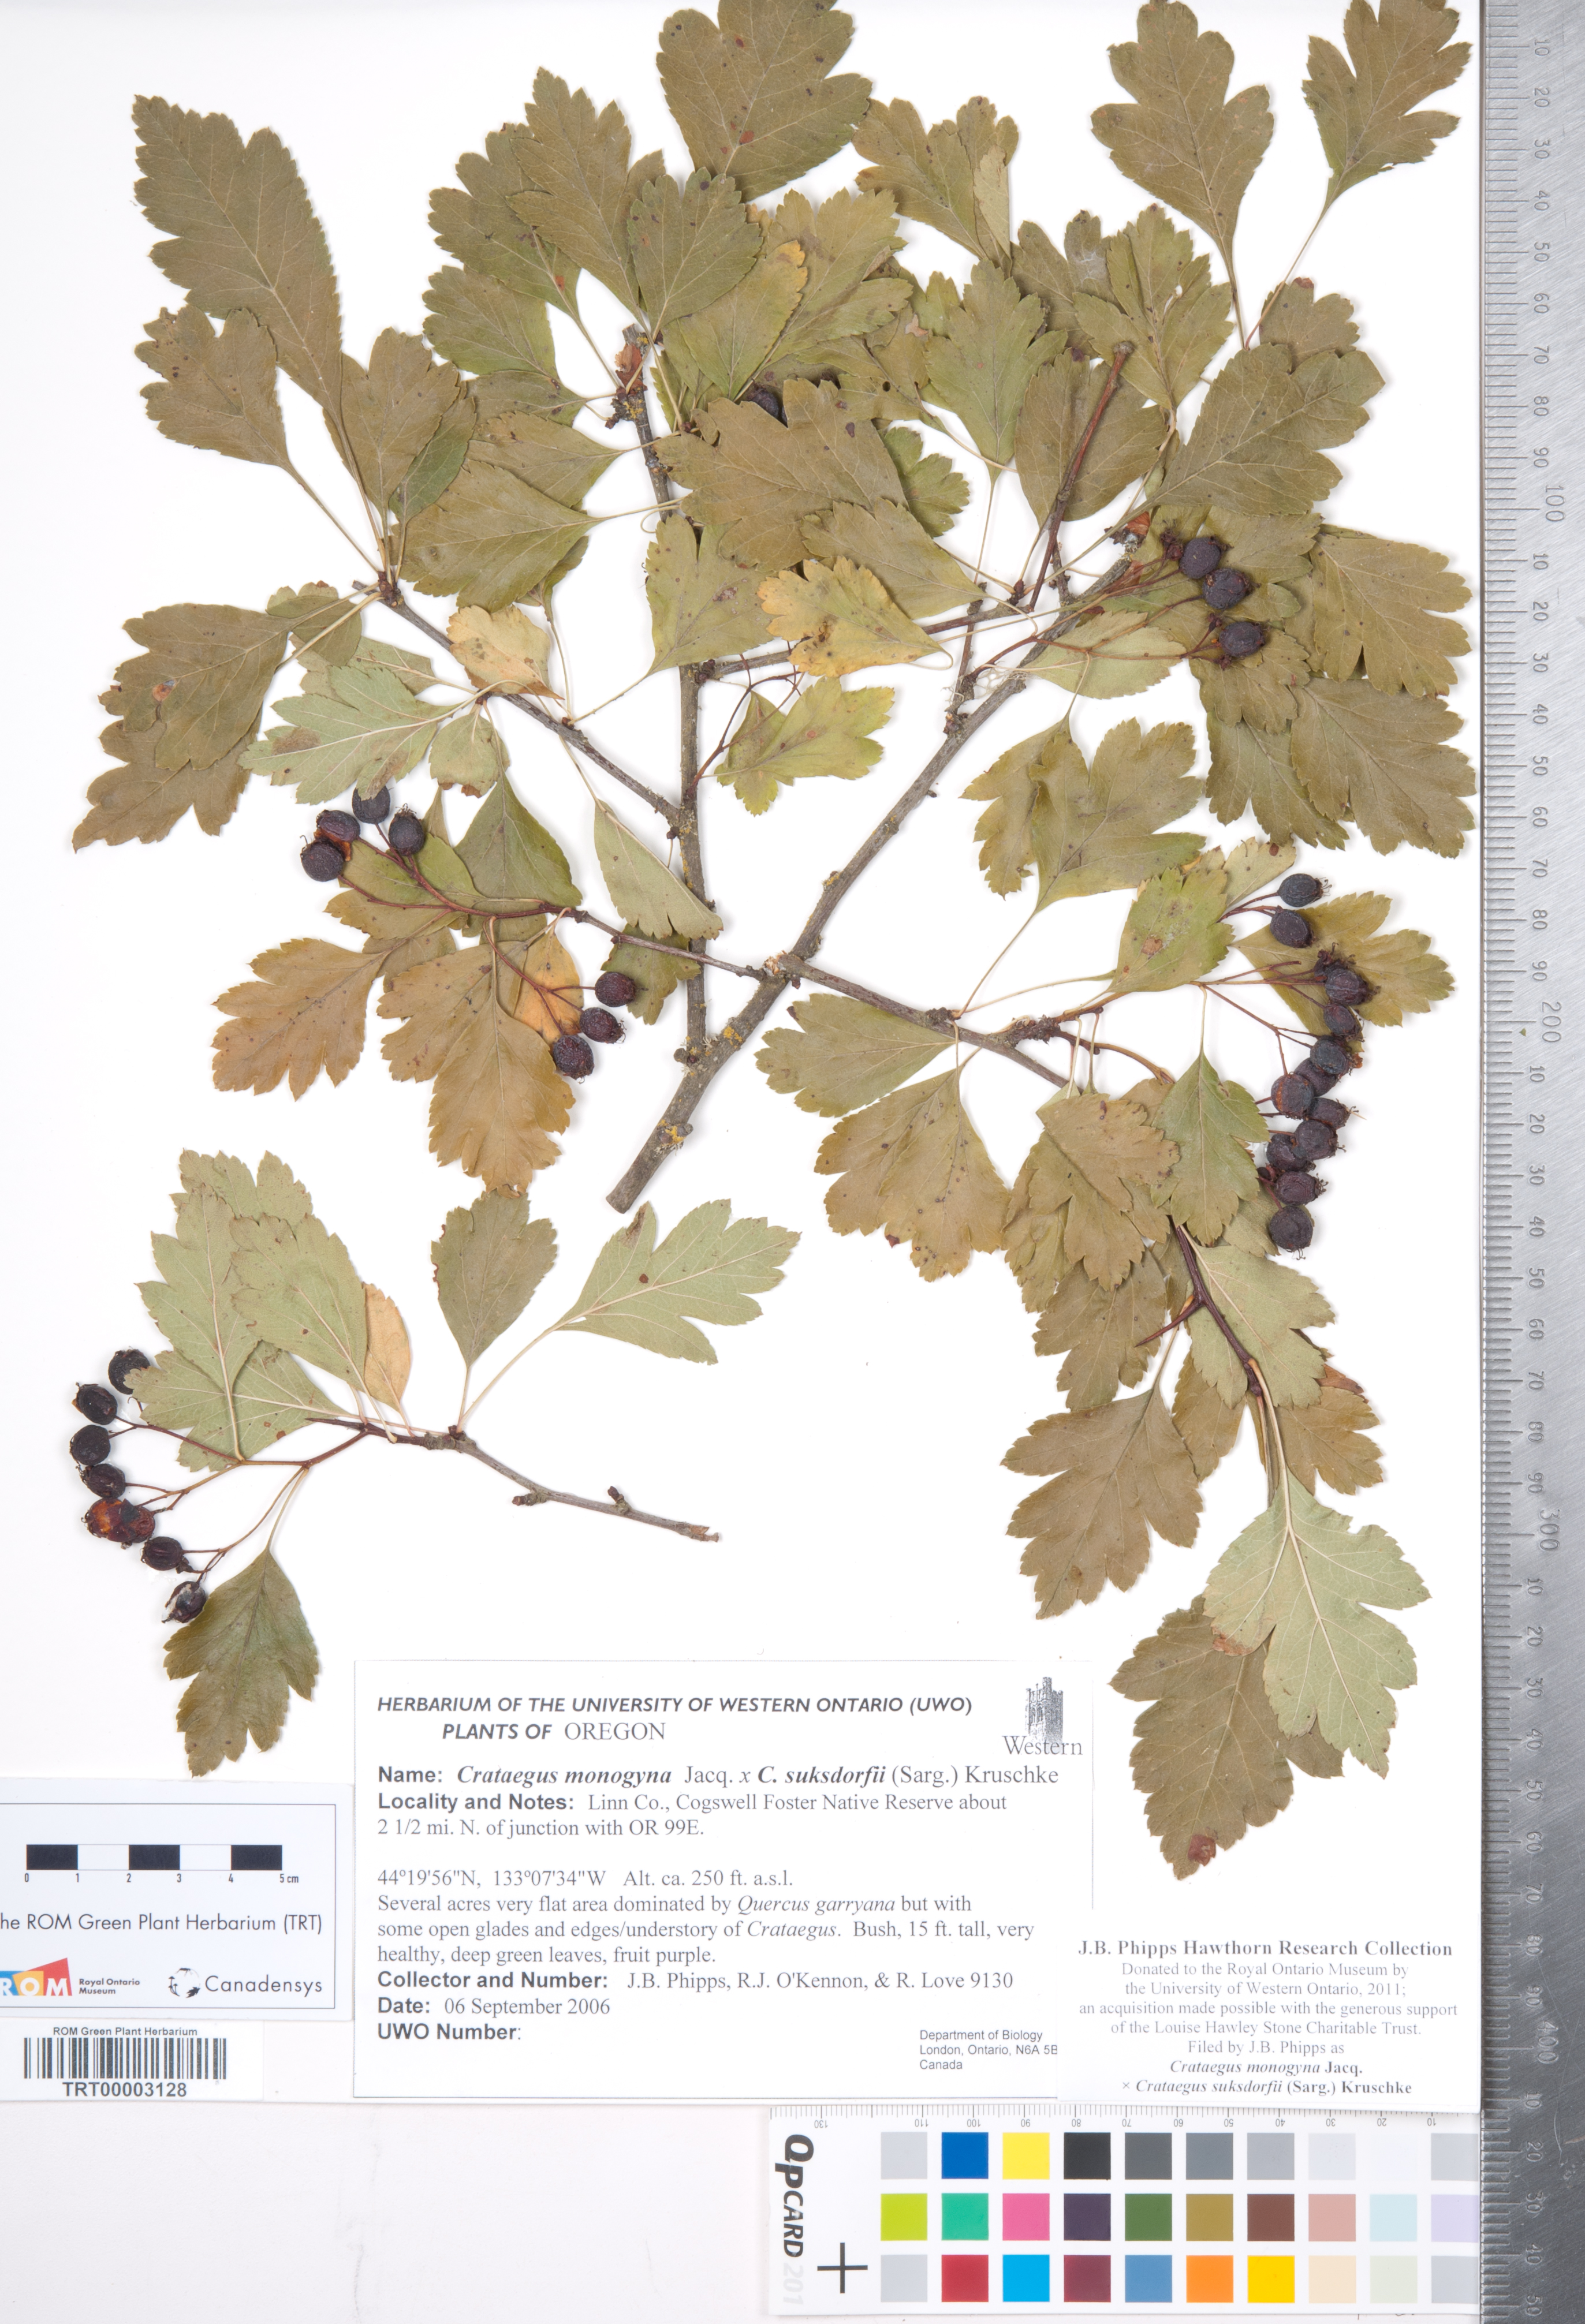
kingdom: Plantae
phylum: Tracheophyta
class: Magnoliopsida
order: Rosales
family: Rosaceae
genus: Crataegus
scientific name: Crataegus
